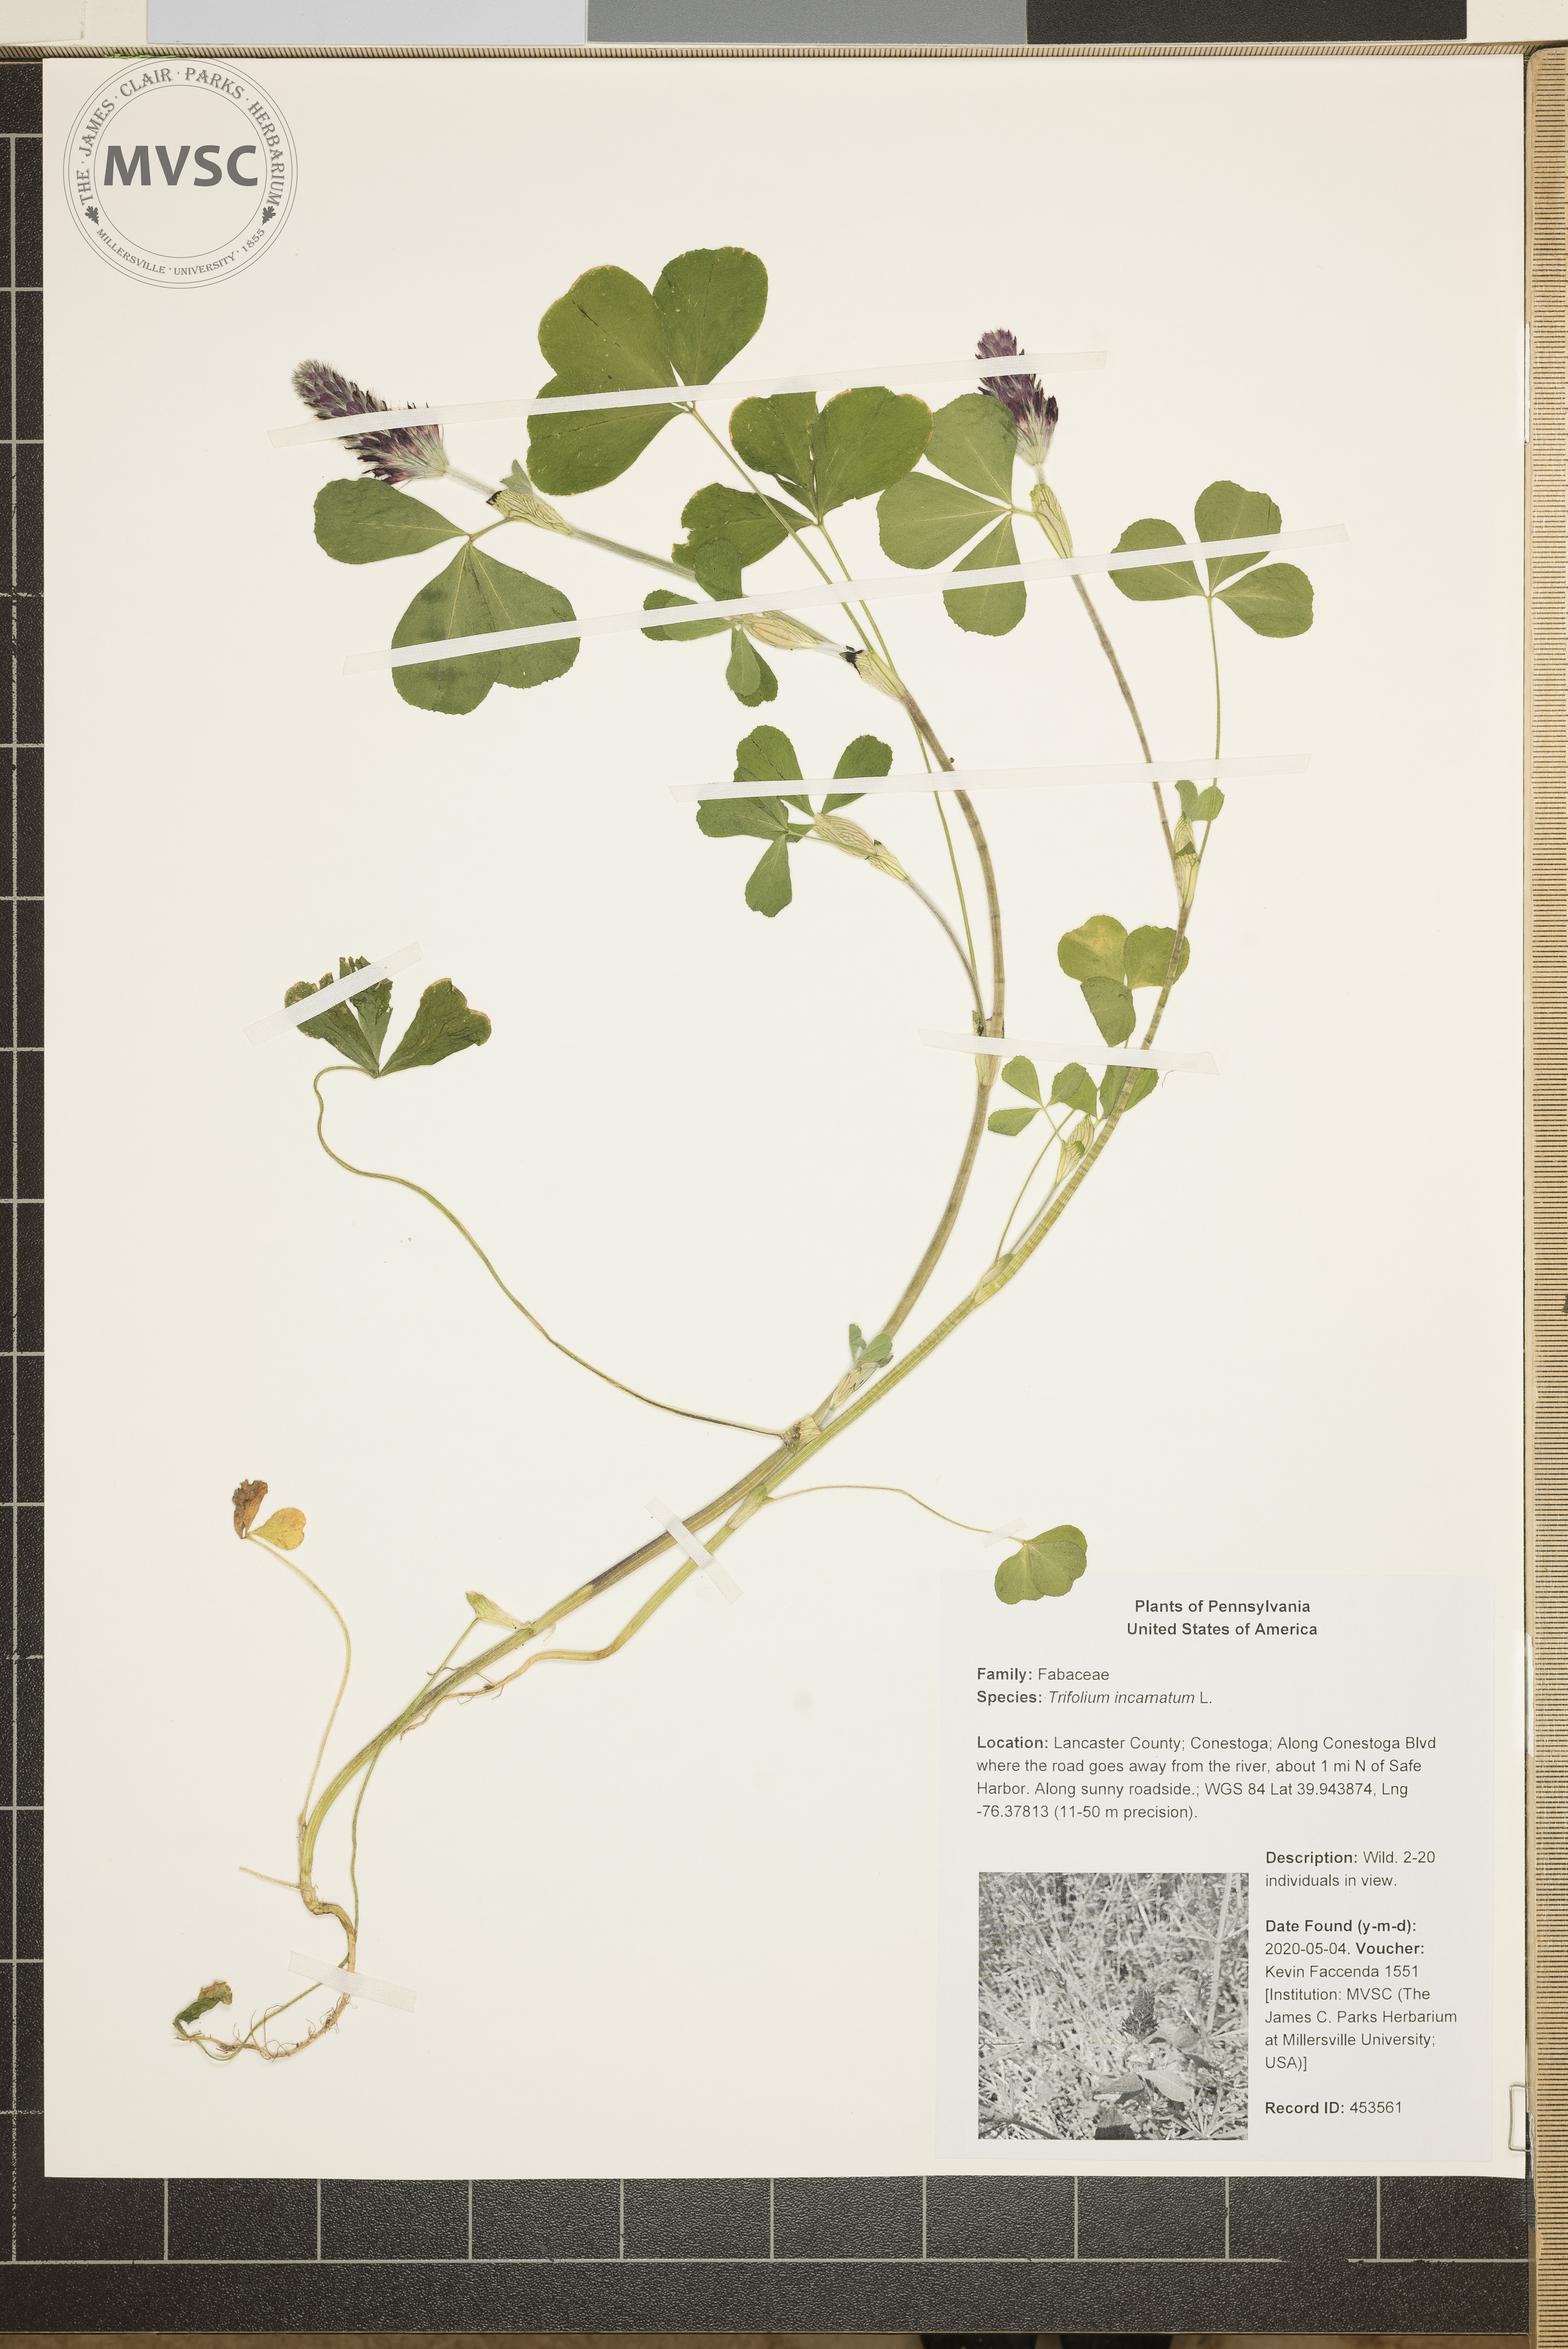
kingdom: Plantae
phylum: Tracheophyta
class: Magnoliopsida
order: Fabales
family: Fabaceae
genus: Trifolium
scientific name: Trifolium incarnatum
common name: Crimson clover
